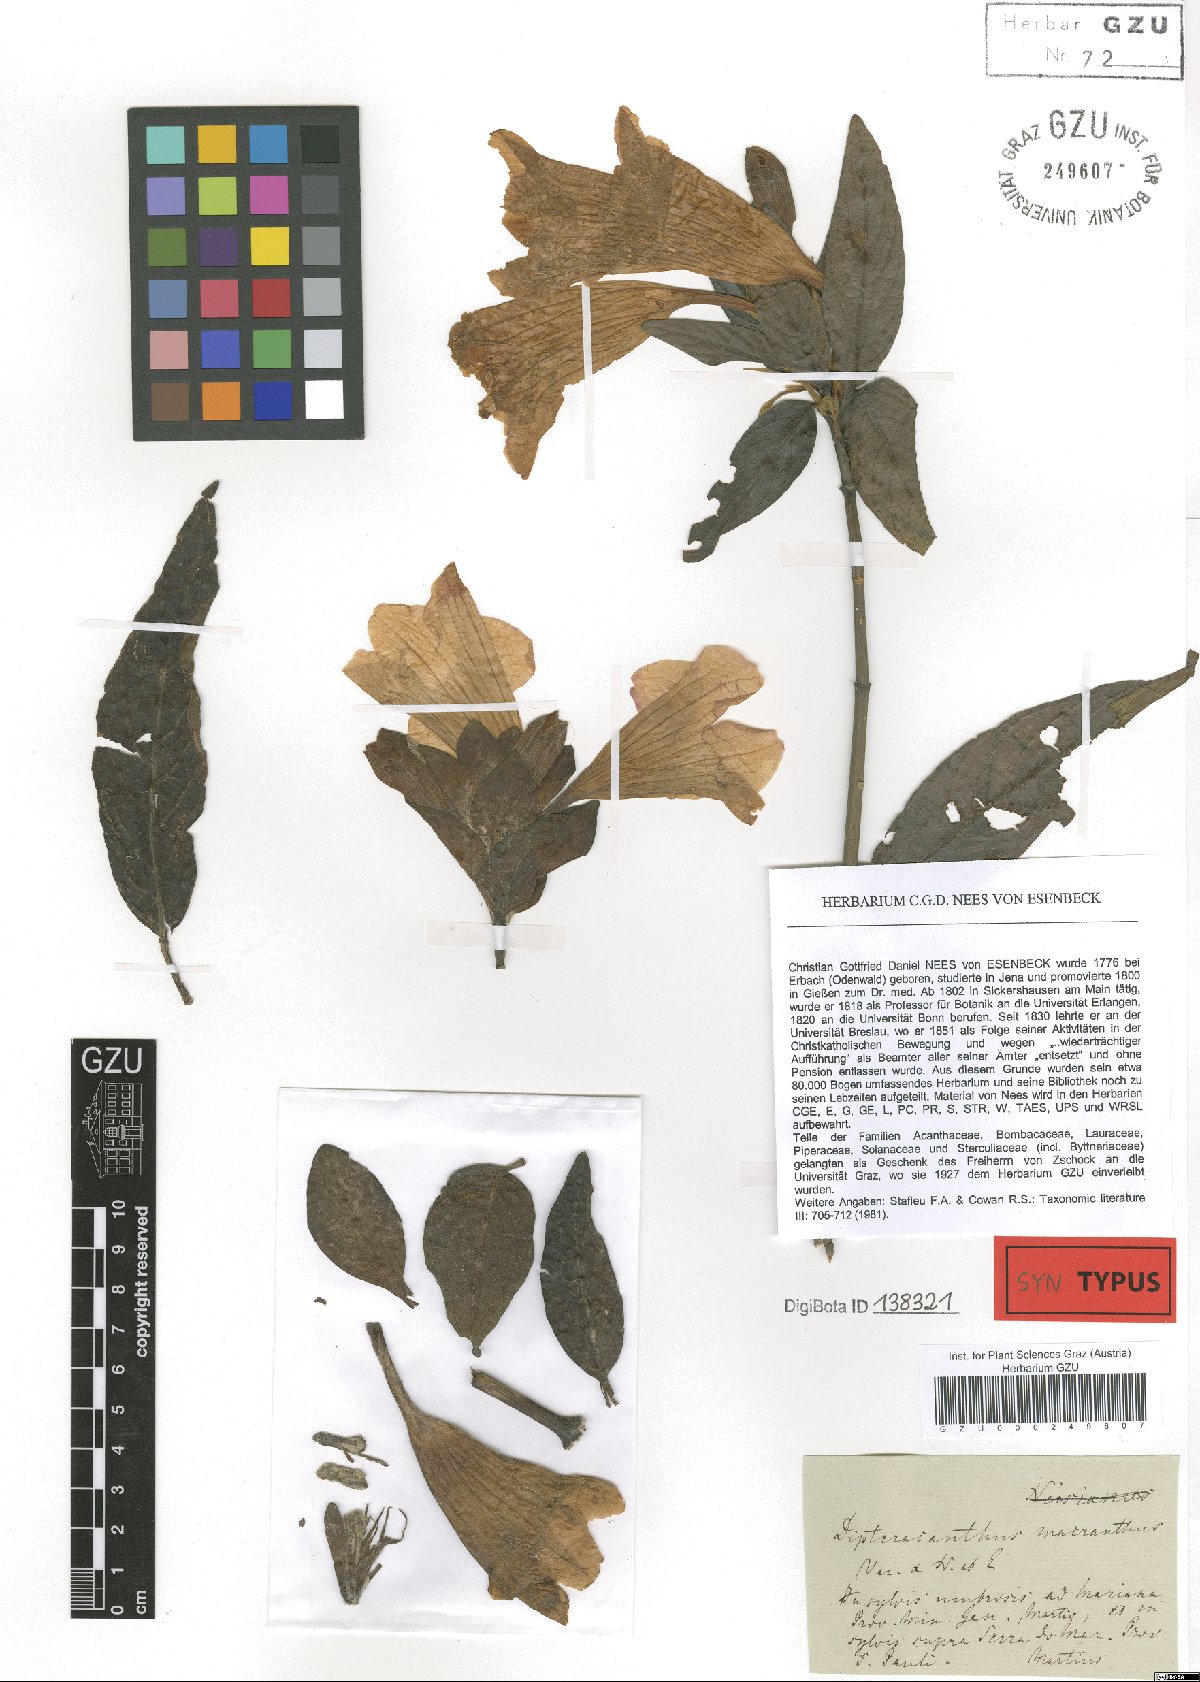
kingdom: Plantae
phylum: Tracheophyta
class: Magnoliopsida
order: Lamiales
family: Acanthaceae
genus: Ruellia
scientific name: Ruellia macrantha
